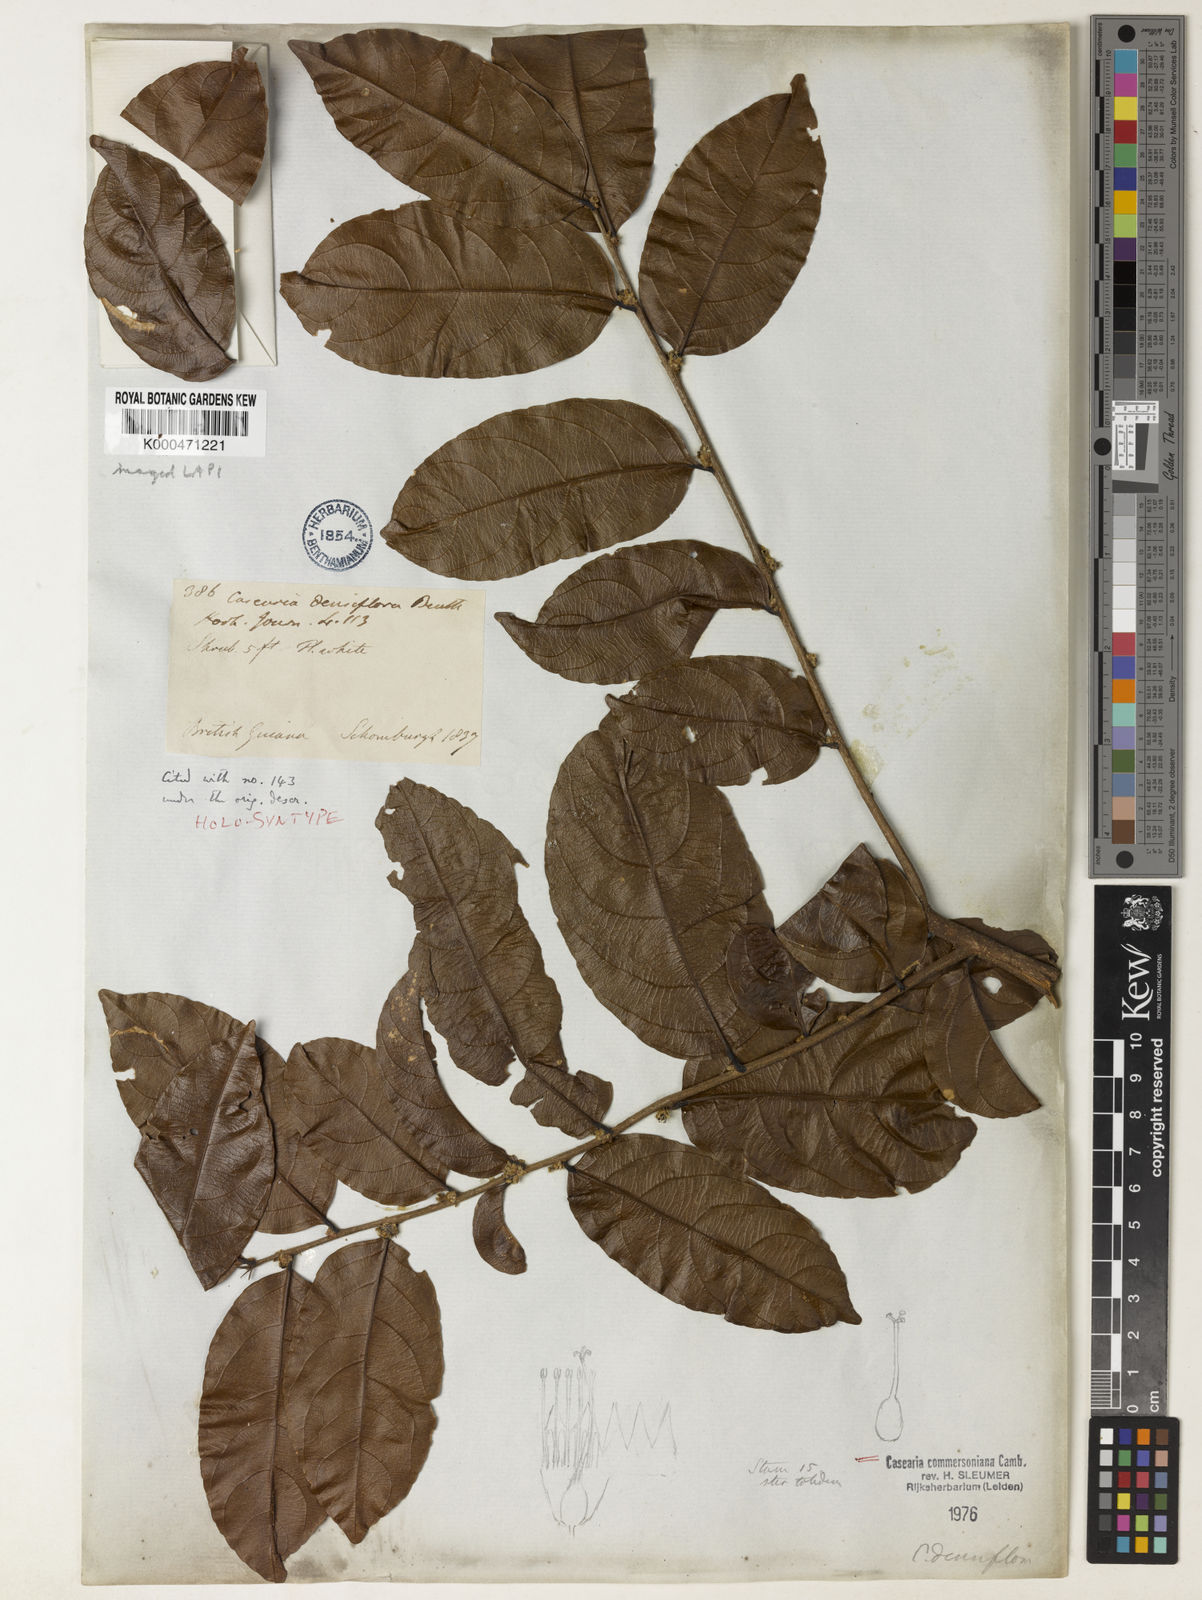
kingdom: Plantae
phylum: Tracheophyta
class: Magnoliopsida
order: Malpighiales
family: Salicaceae
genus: Piparea
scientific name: Piparea dentata
